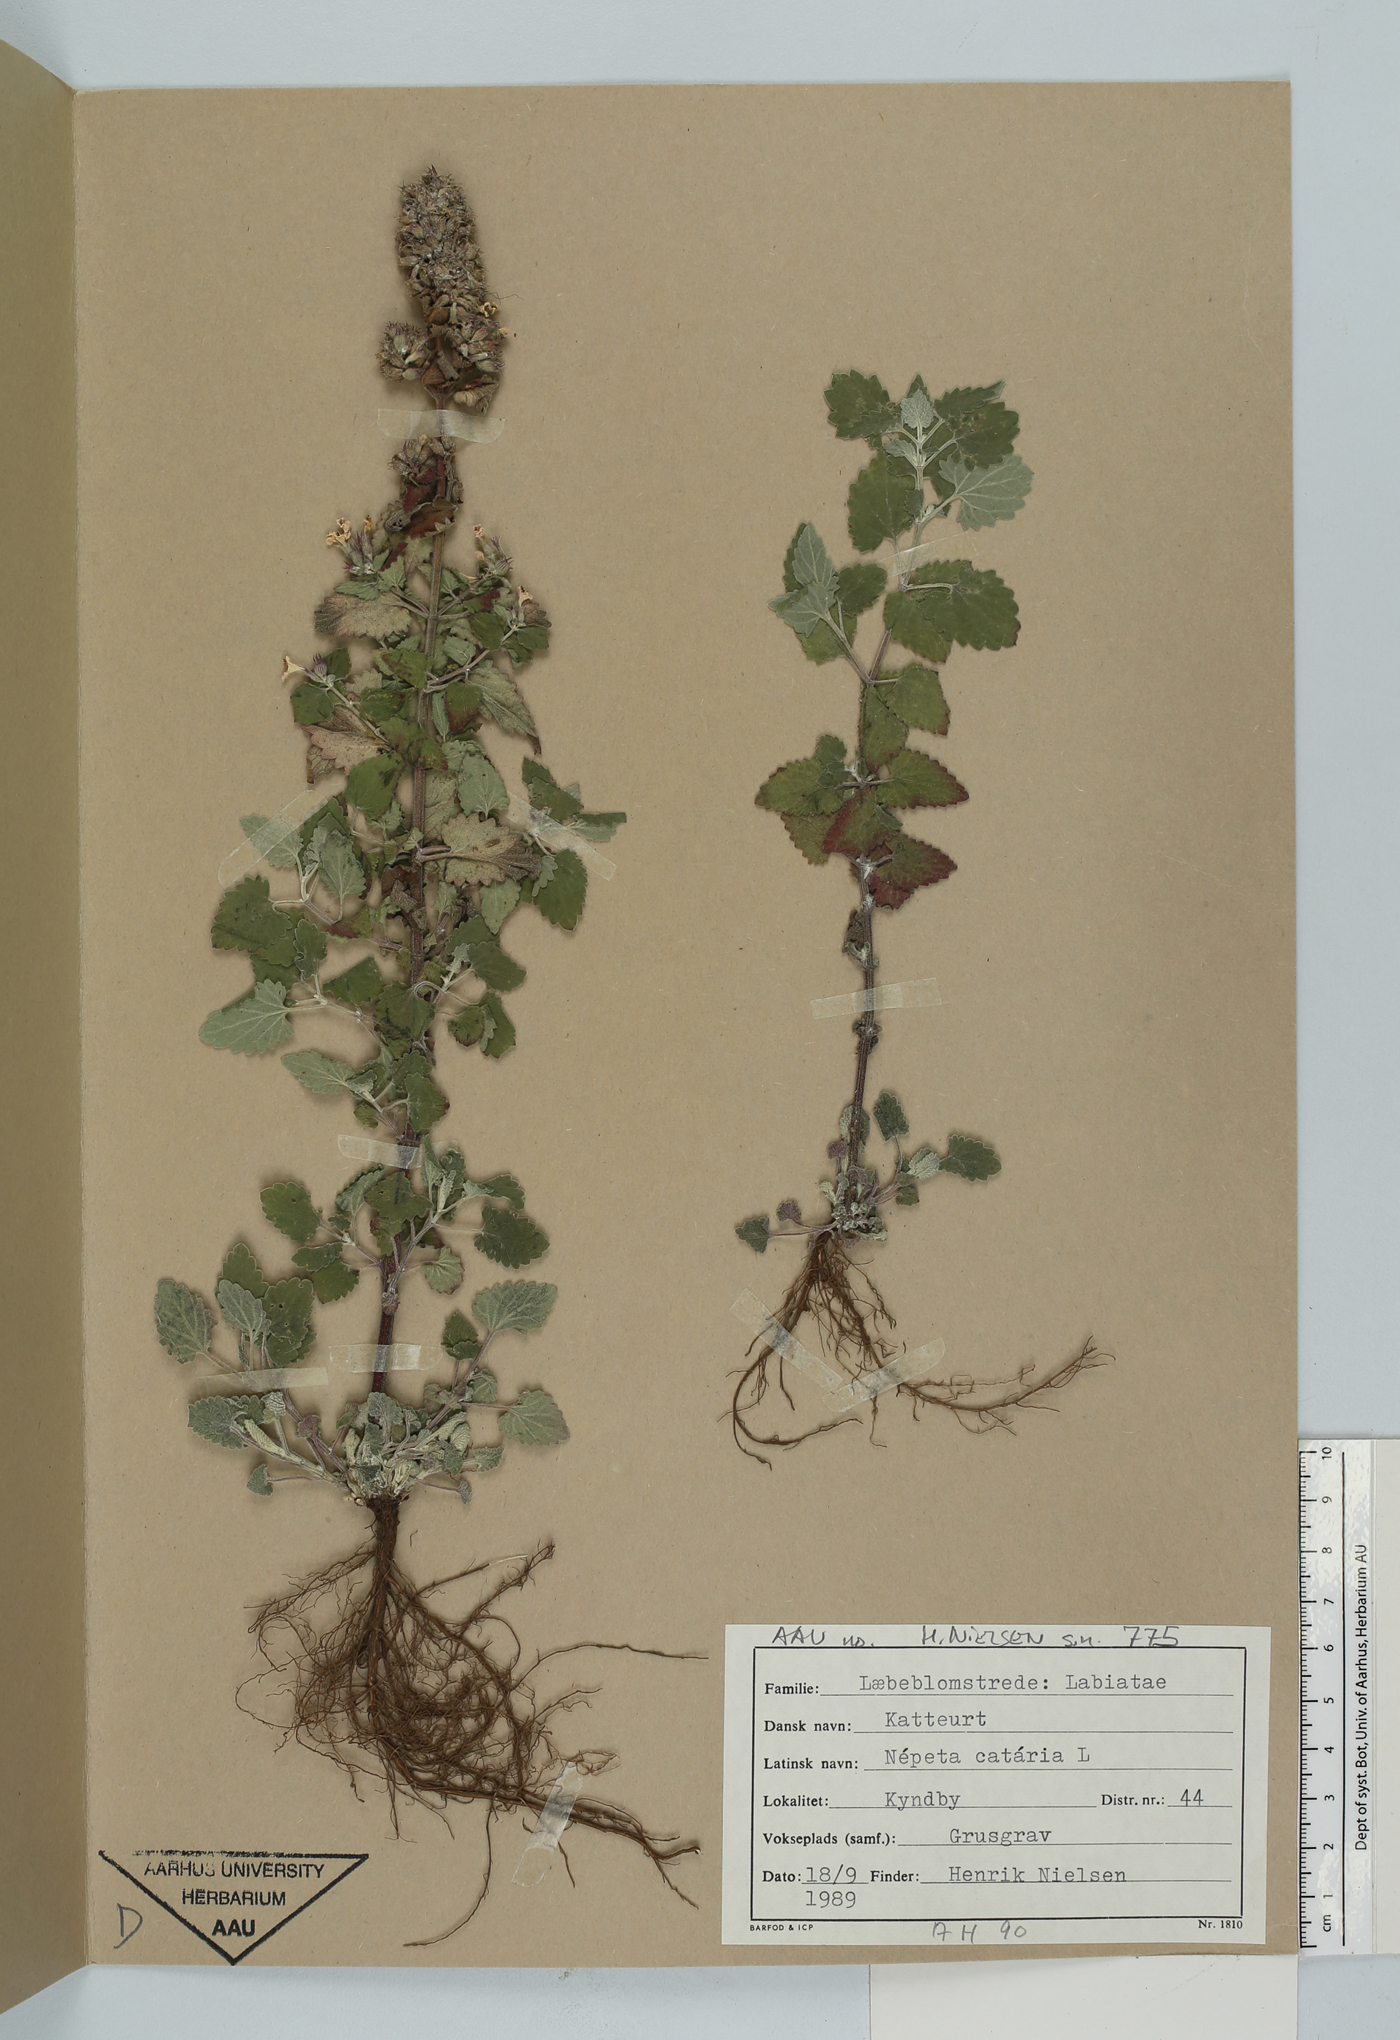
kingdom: Plantae
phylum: Tracheophyta
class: Magnoliopsida
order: Lamiales
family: Lamiaceae
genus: Nepeta
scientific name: Nepeta cataria
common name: Catnip
